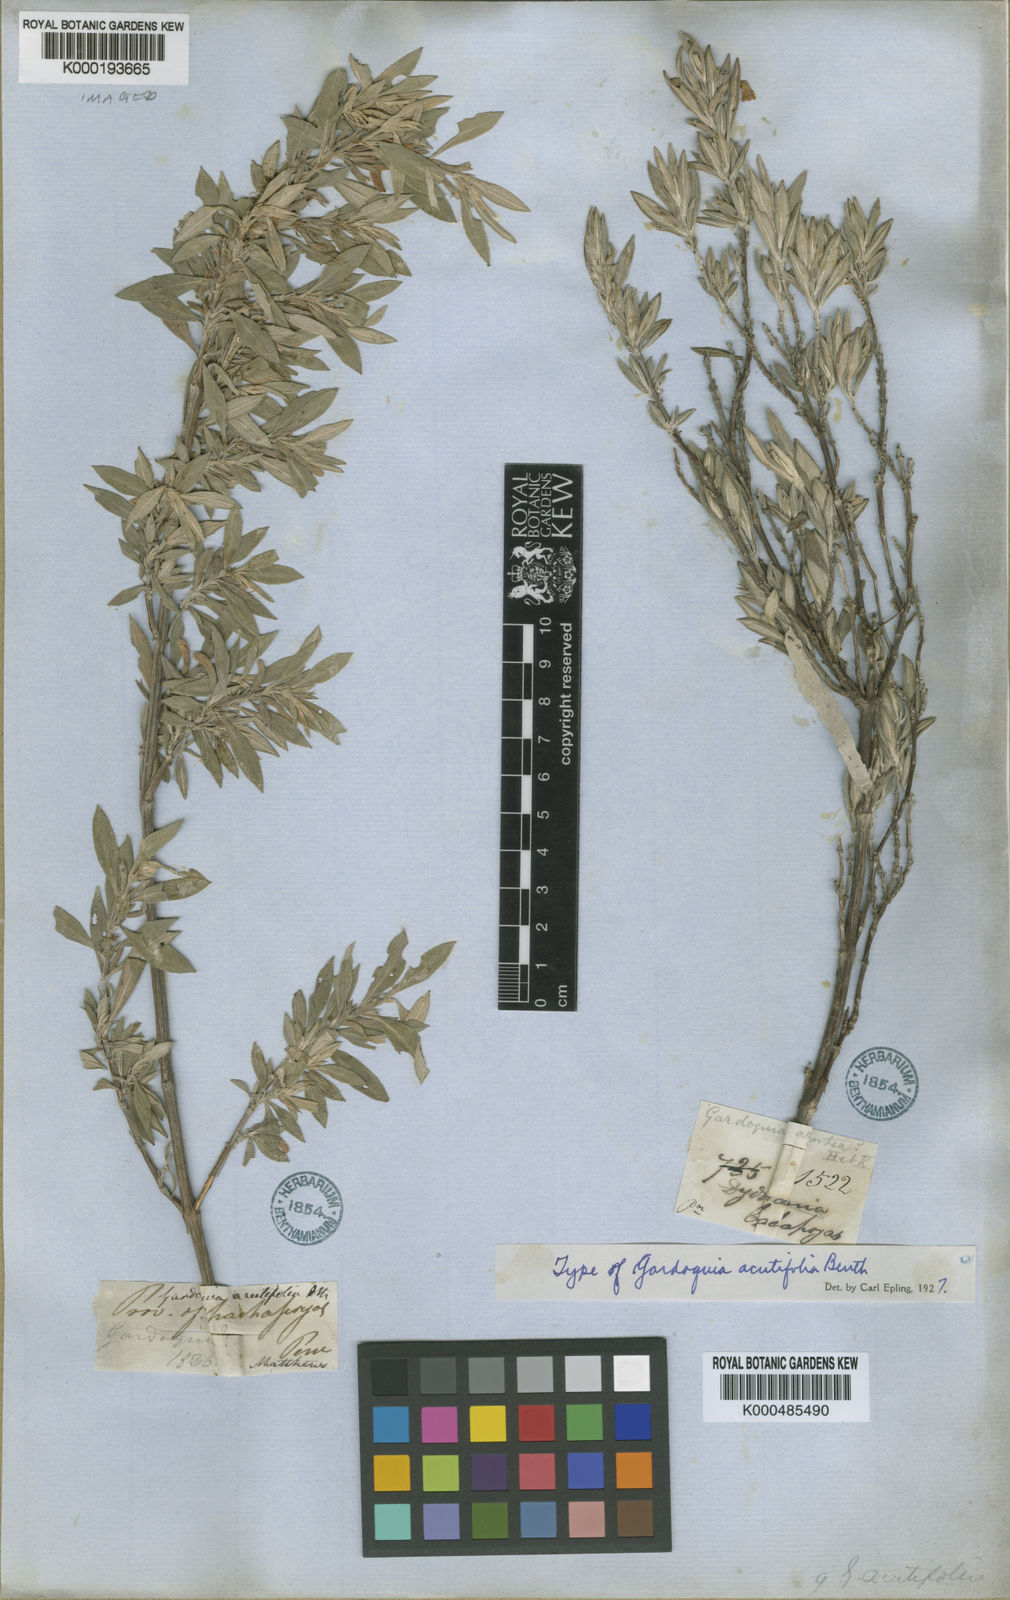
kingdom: Plantae
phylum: Tracheophyta
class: Magnoliopsida
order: Lamiales
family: Lamiaceae
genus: Clinopodium
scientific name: Clinopodium acutifolium
